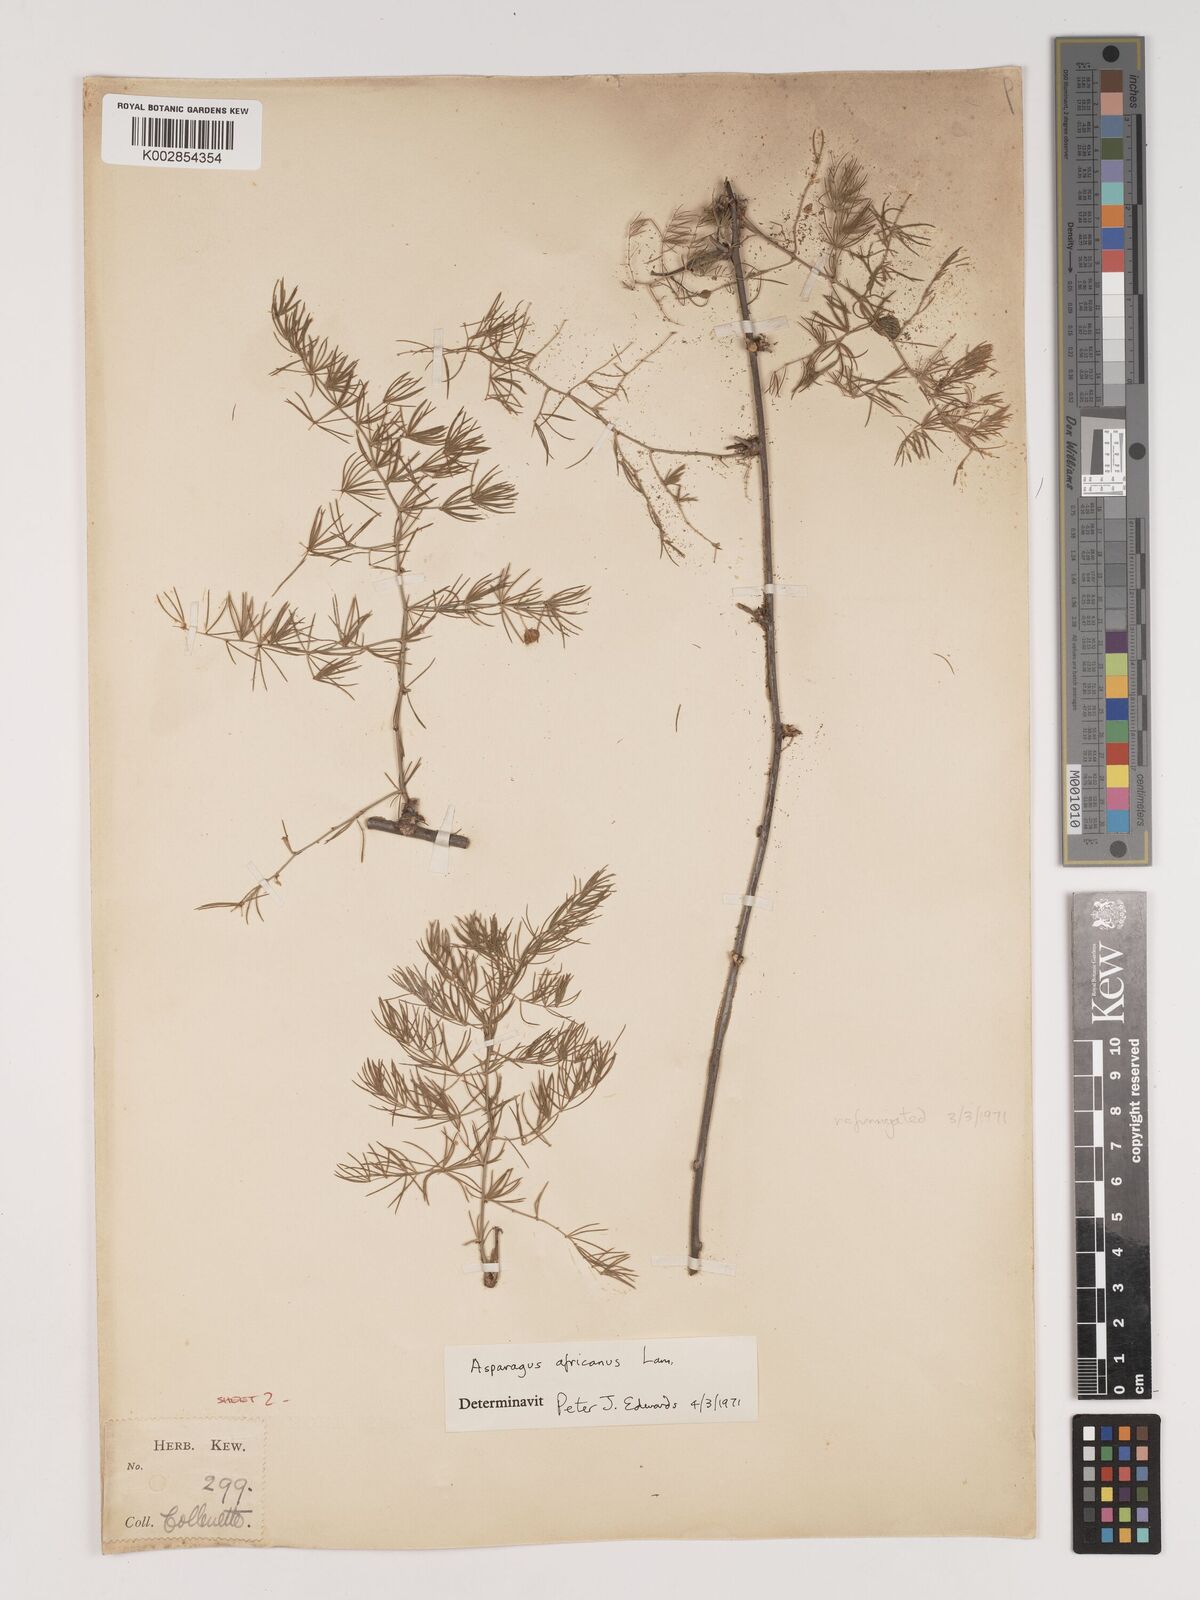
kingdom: Plantae
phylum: Tracheophyta
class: Liliopsida
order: Asparagales
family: Asparagaceae
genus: Asparagus
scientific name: Asparagus africanus
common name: Asparagus-fern
